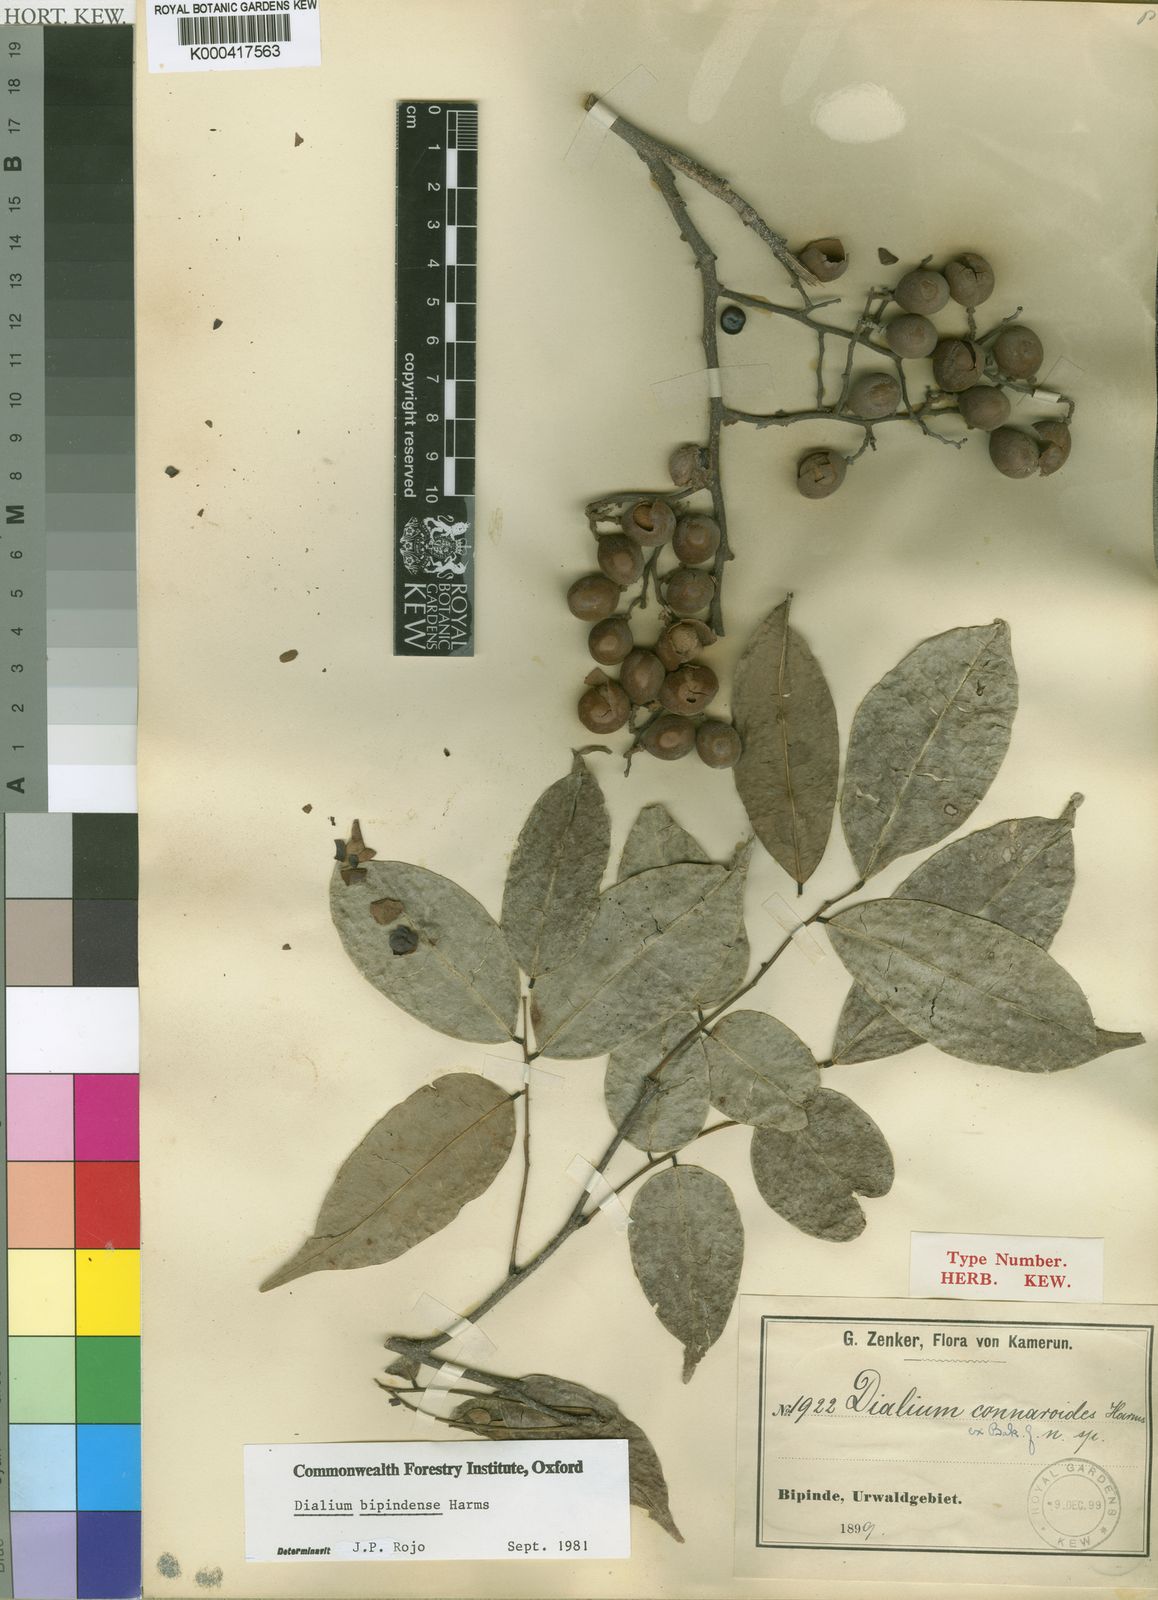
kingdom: Plantae
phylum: Tracheophyta
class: Magnoliopsida
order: Fabales
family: Fabaceae
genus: Dialium
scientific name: Dialium bipindense
